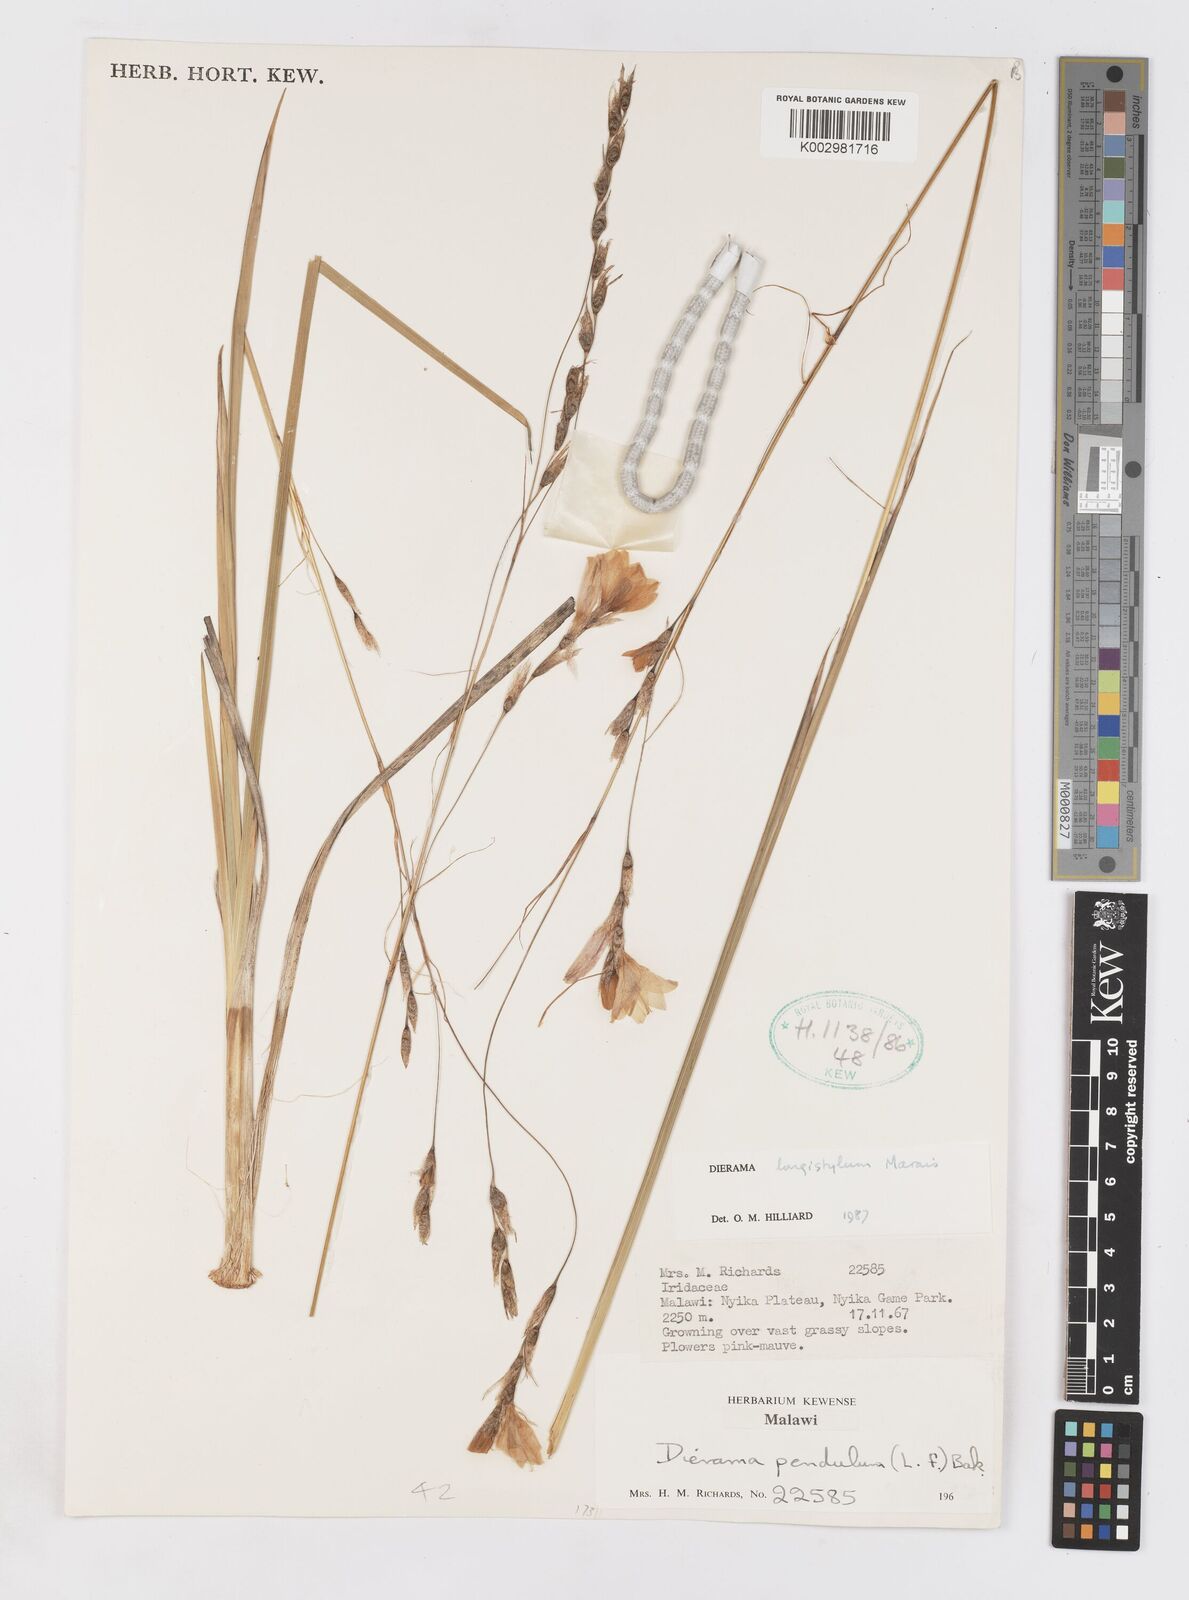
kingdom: Plantae
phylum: Tracheophyta
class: Liliopsida
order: Asparagales
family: Iridaceae
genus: Dierama
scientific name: Dierama longistylum
